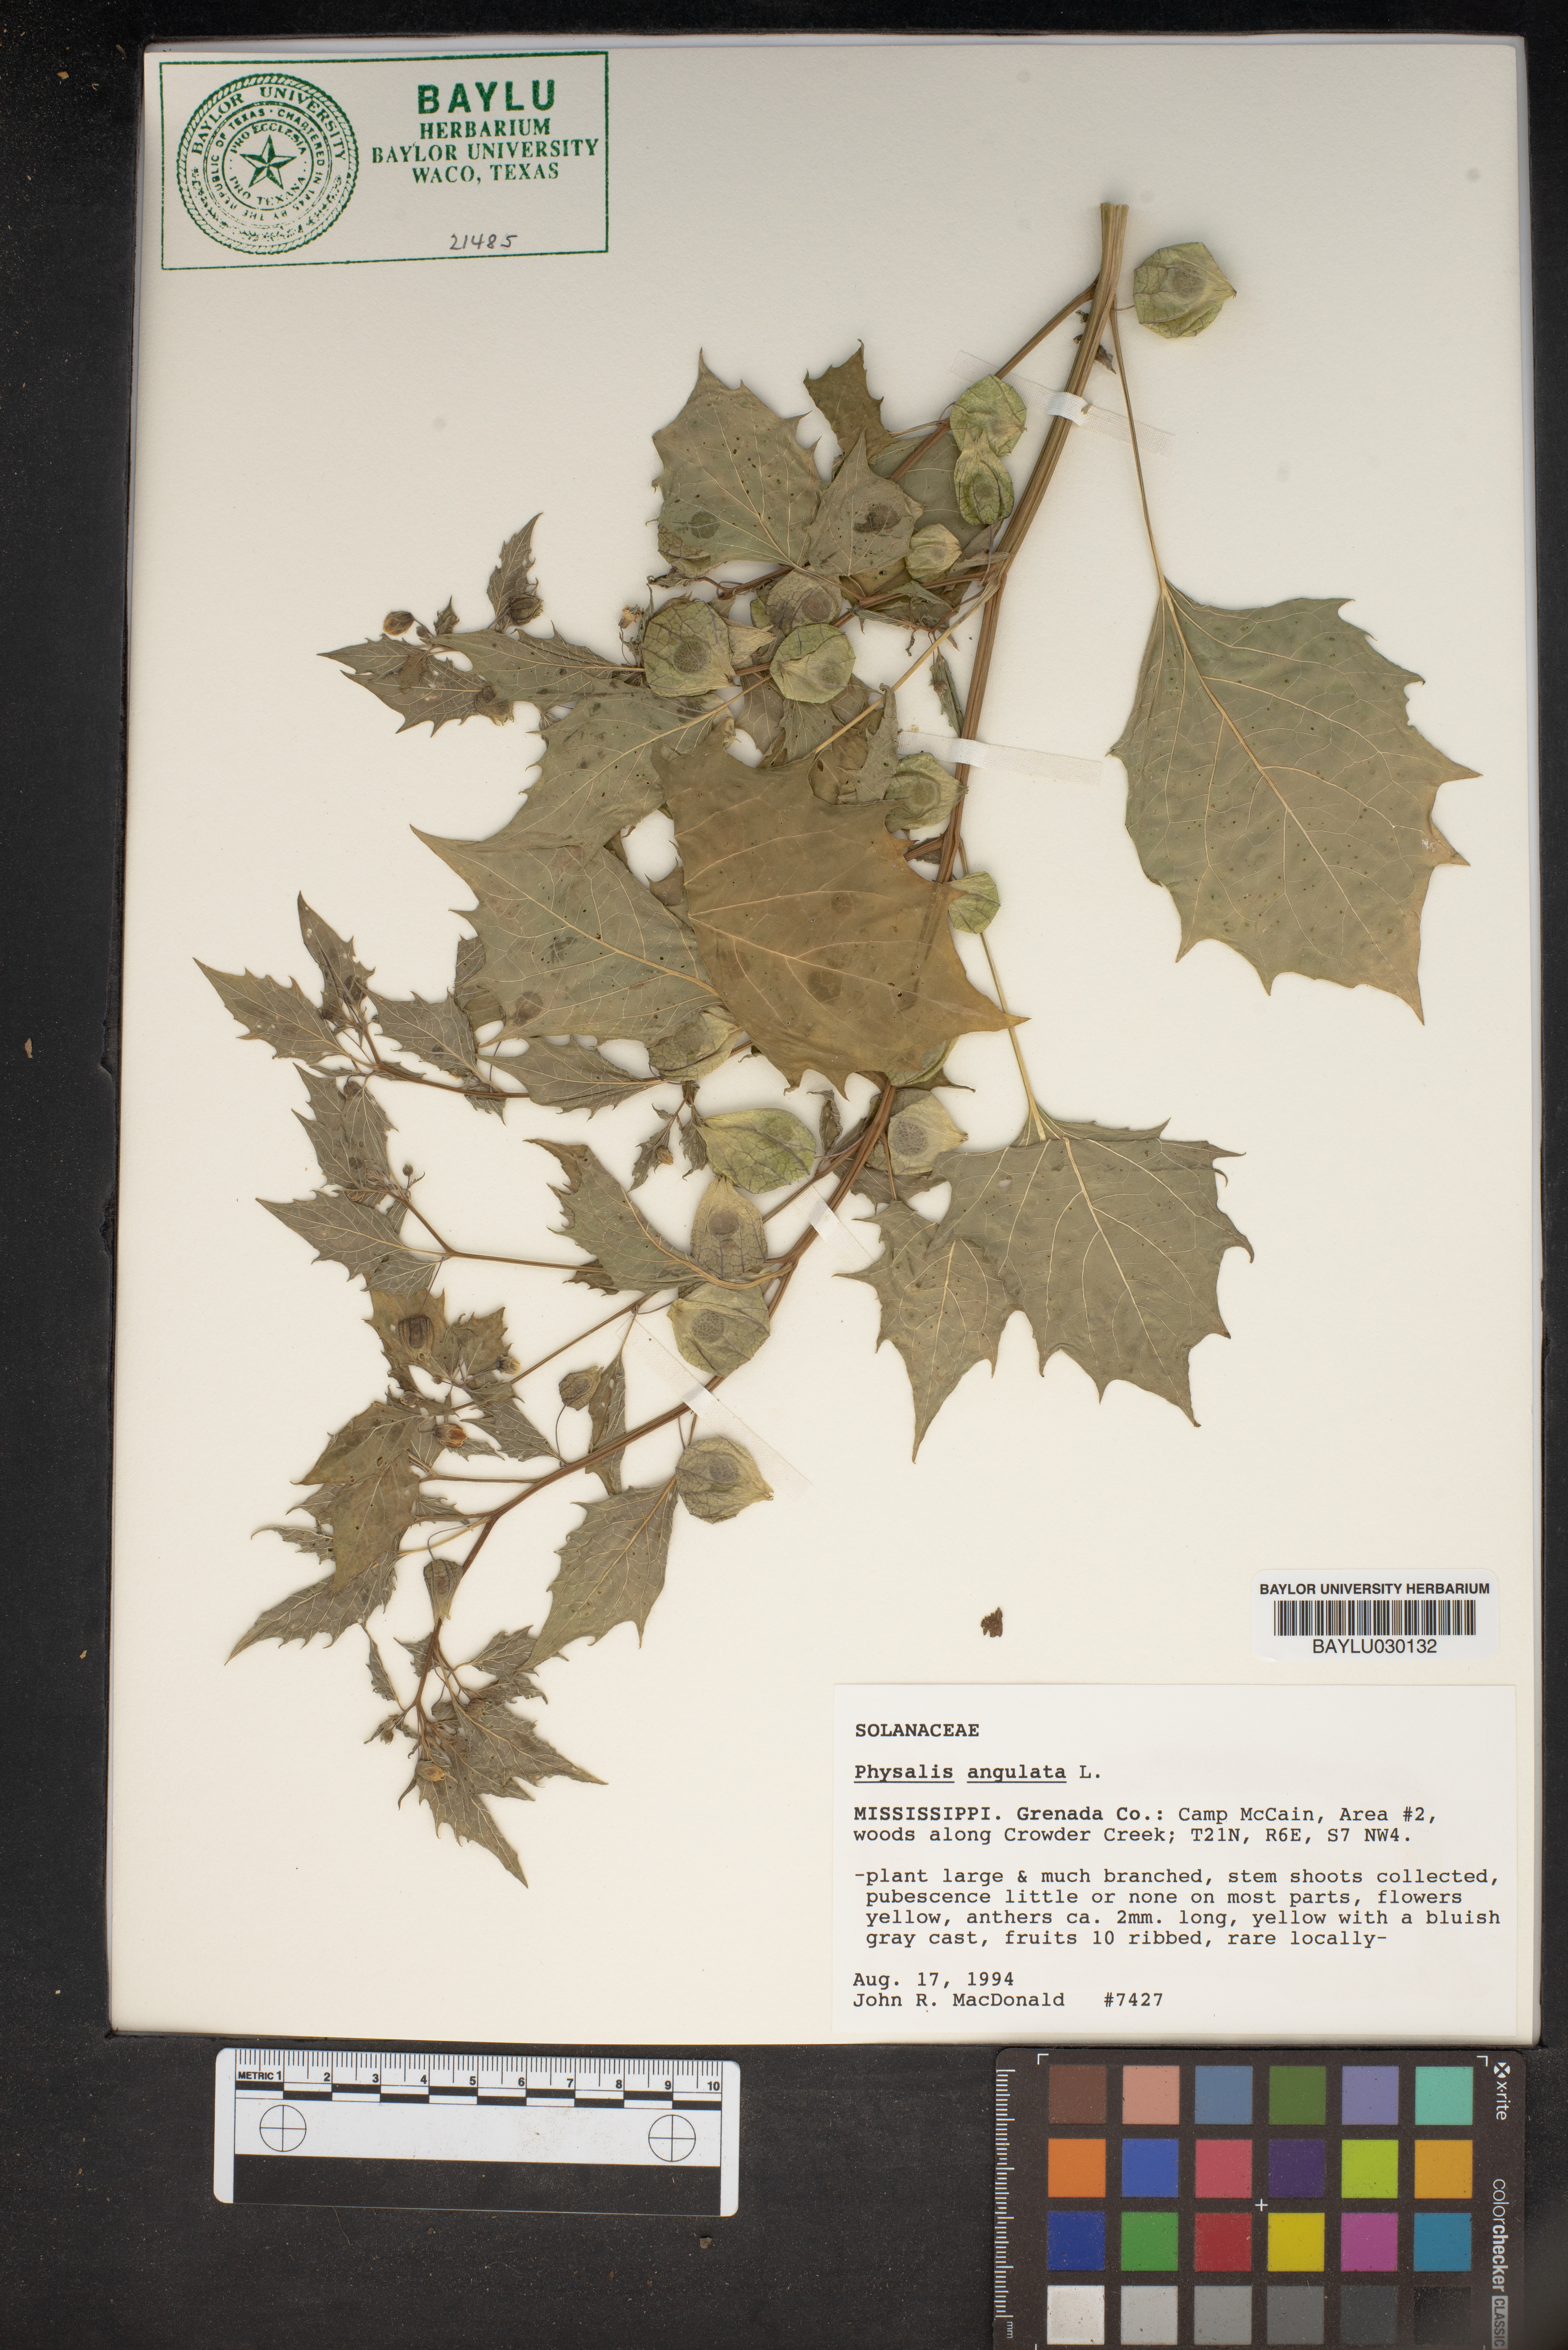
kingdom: Plantae
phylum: Tracheophyta
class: Magnoliopsida
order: Solanales
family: Solanaceae
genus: Physalis
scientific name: Physalis angulata
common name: Angular winter-cherry
